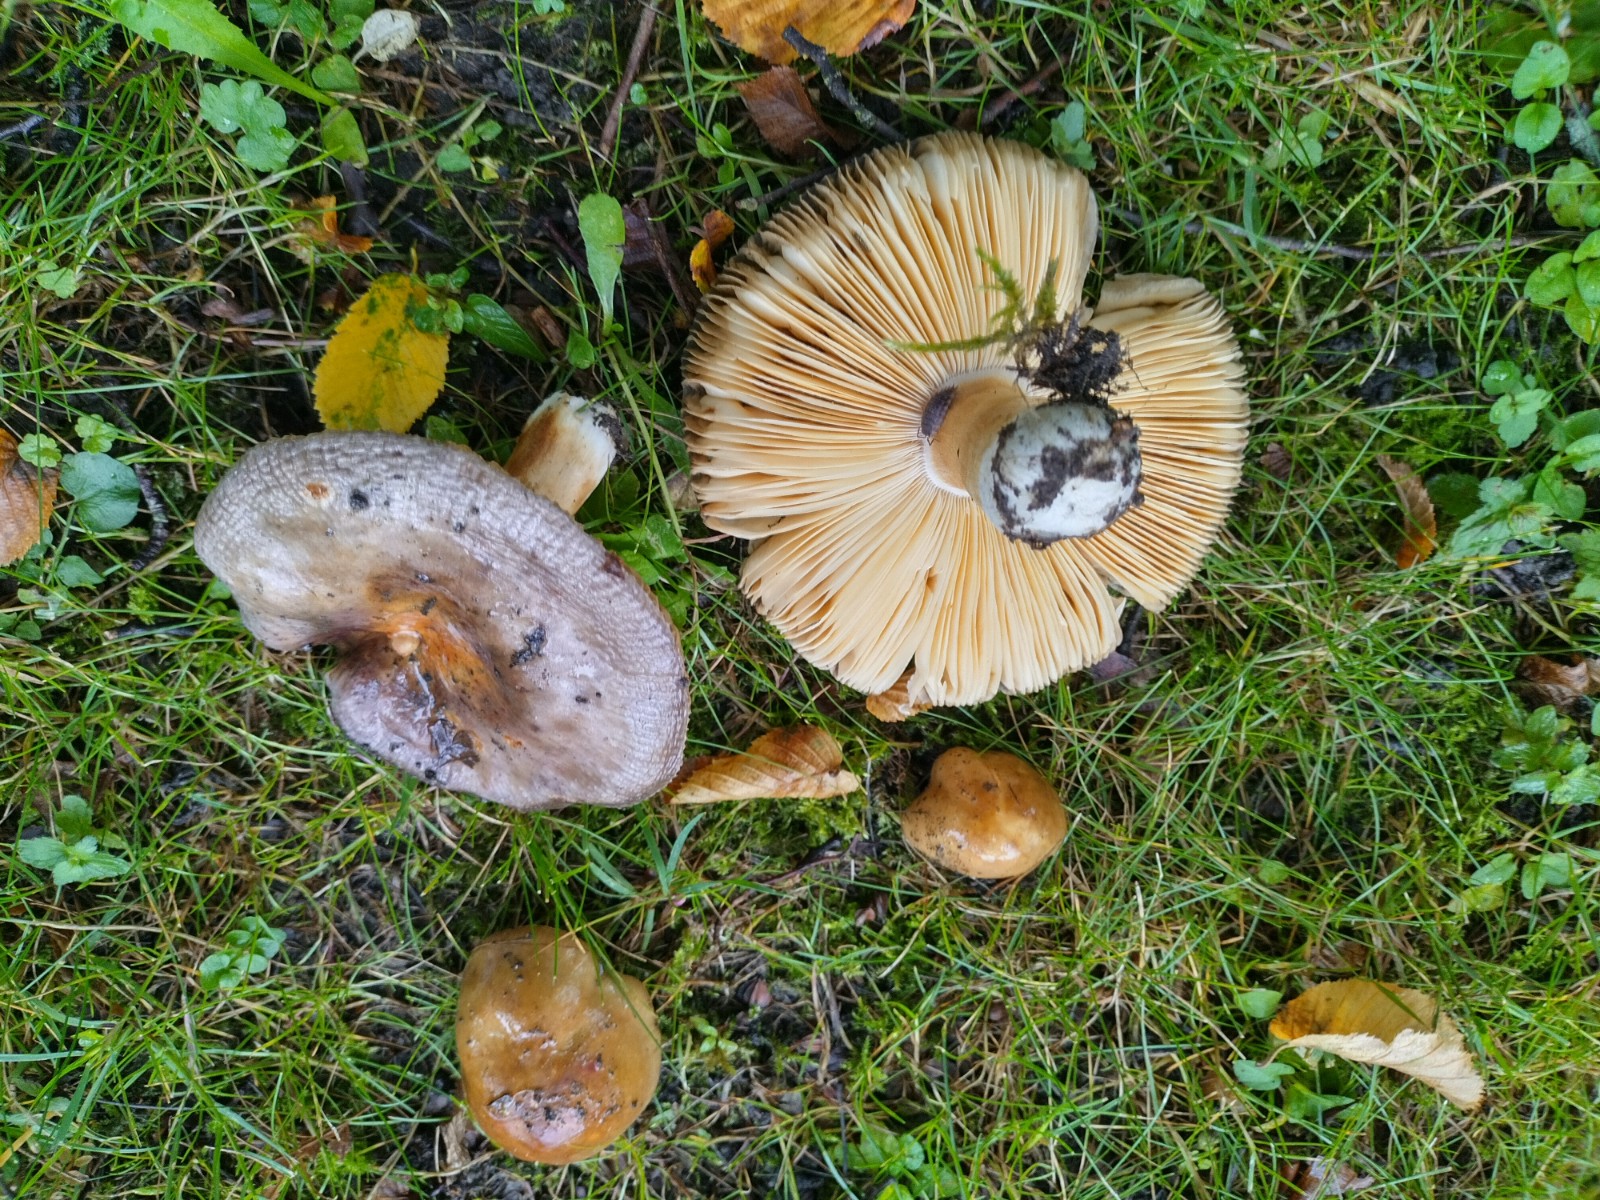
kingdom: Fungi
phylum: Basidiomycota
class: Agaricomycetes
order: Russulales
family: Russulaceae
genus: Russula
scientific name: Russula carpini
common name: avnbøg-skørhat
